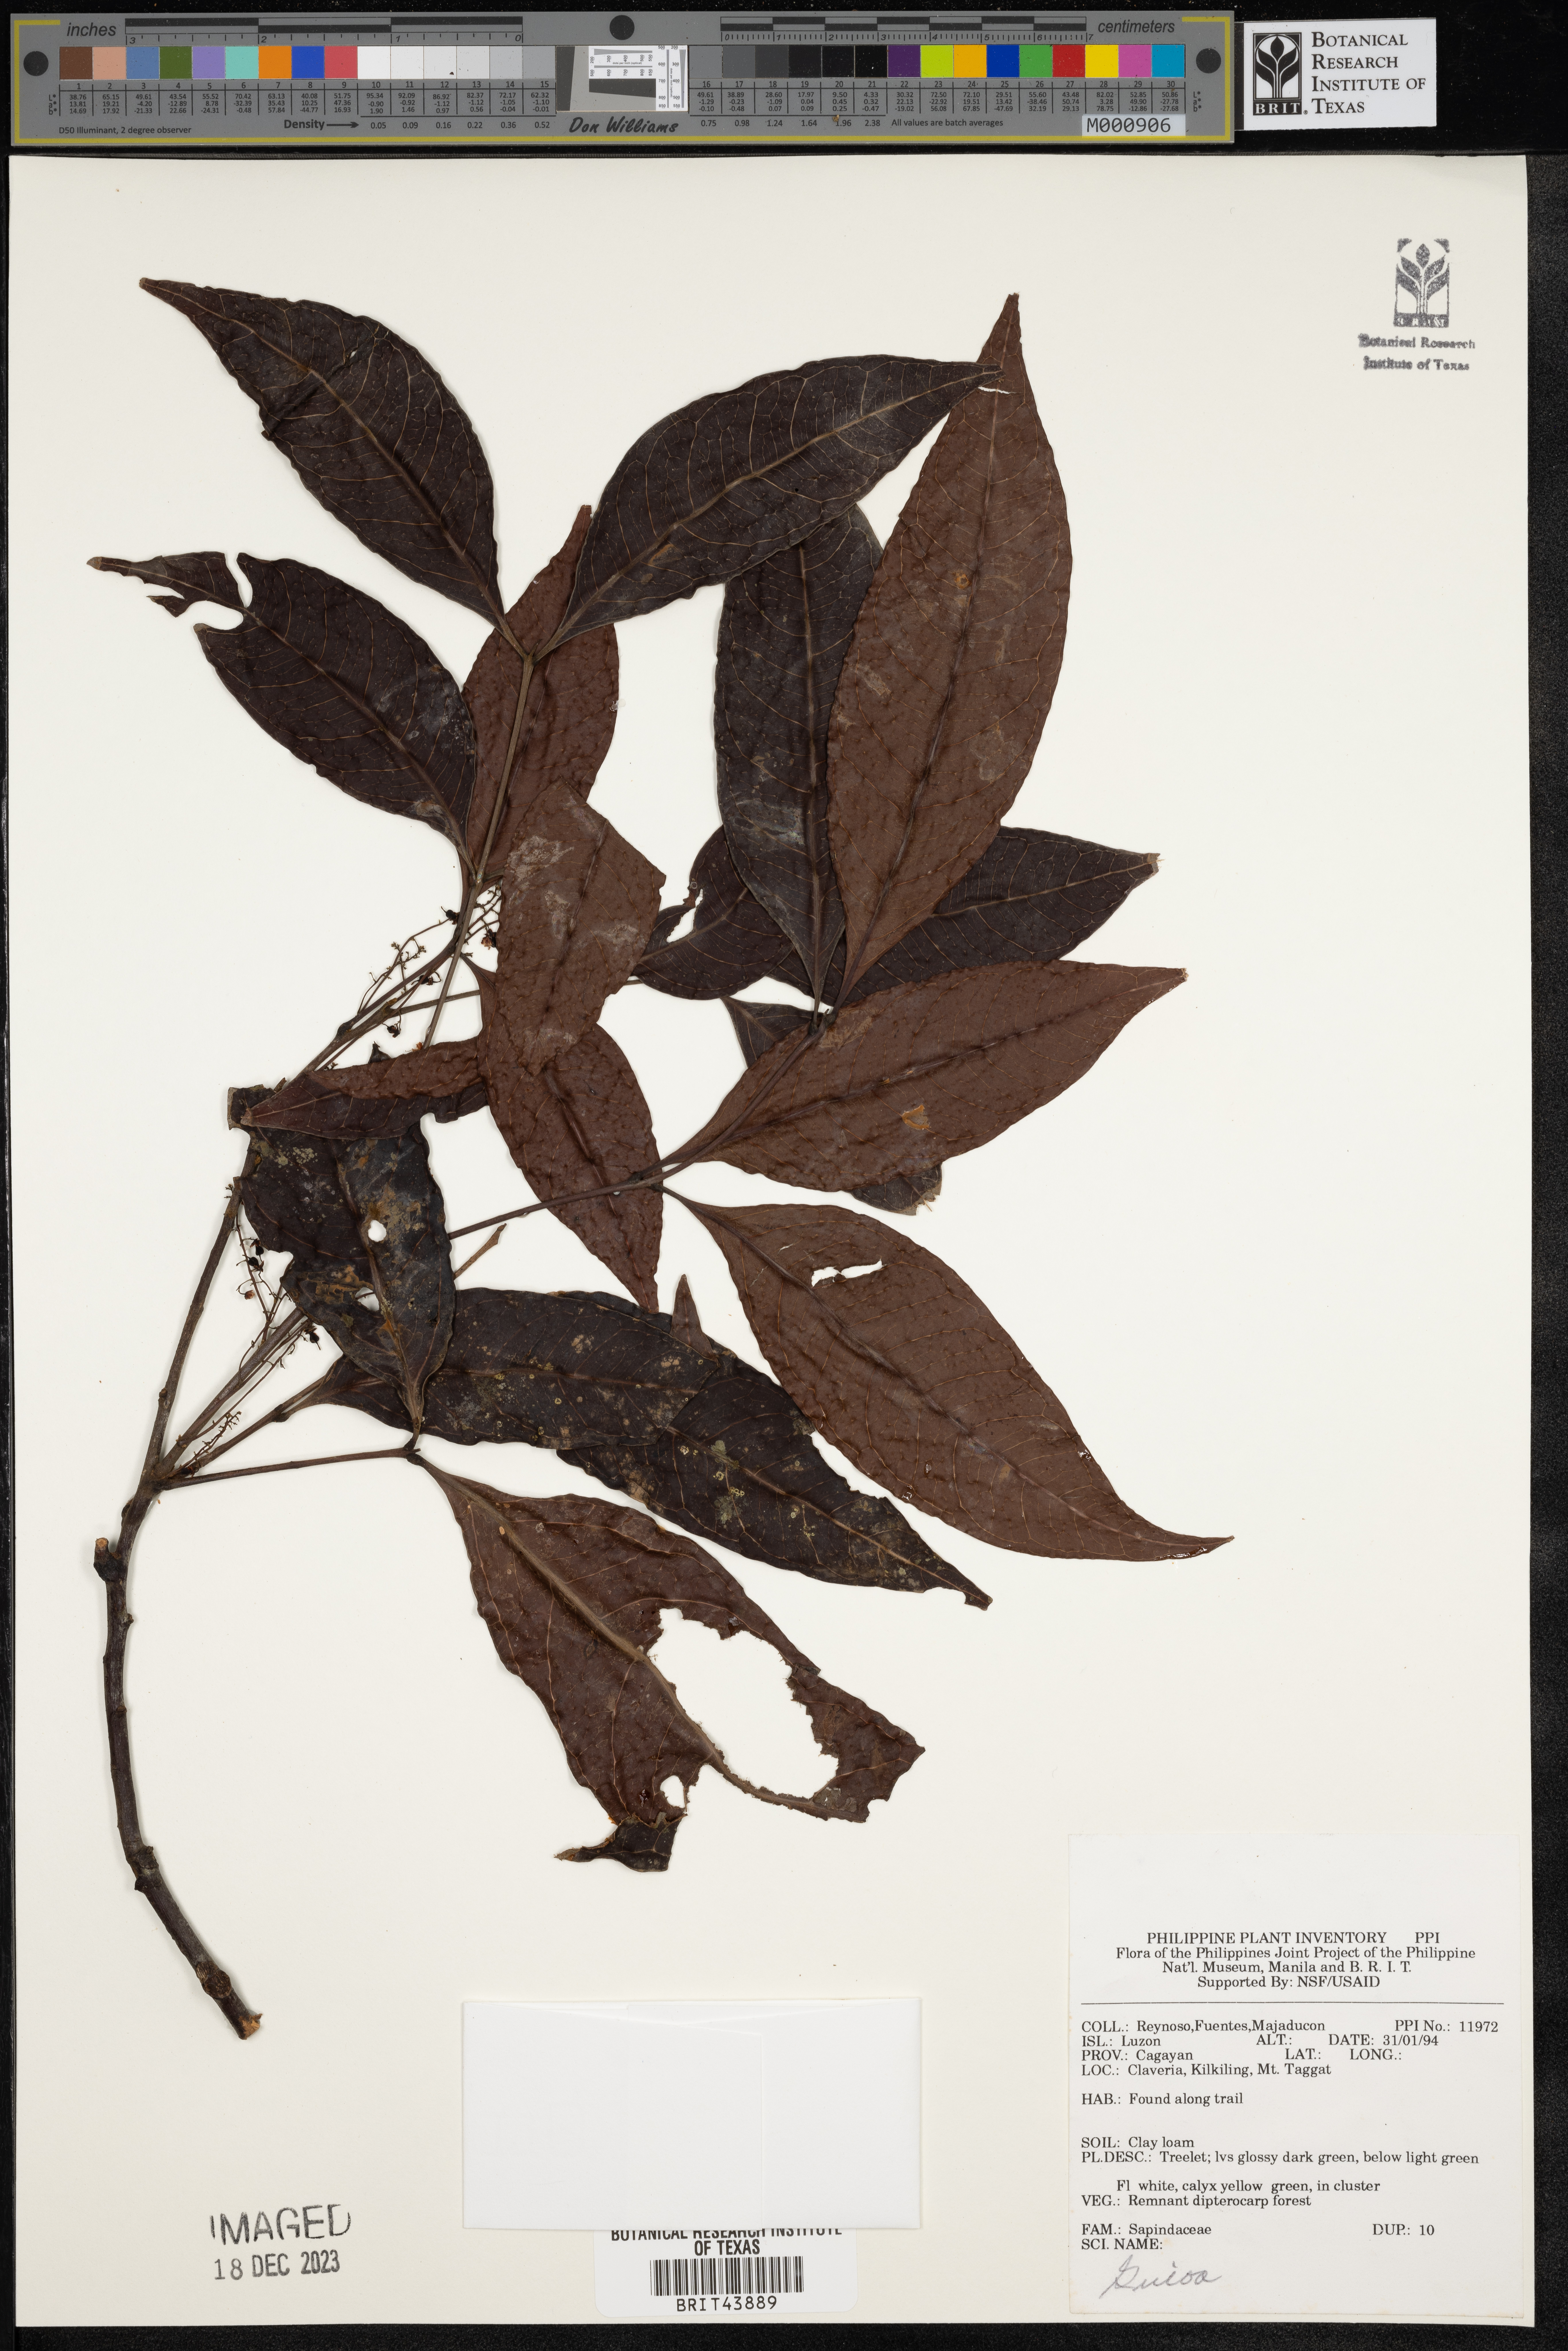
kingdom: Plantae
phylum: Tracheophyta
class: Magnoliopsida
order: Sapindales
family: Sapindaceae
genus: Guioa
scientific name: Guioa
